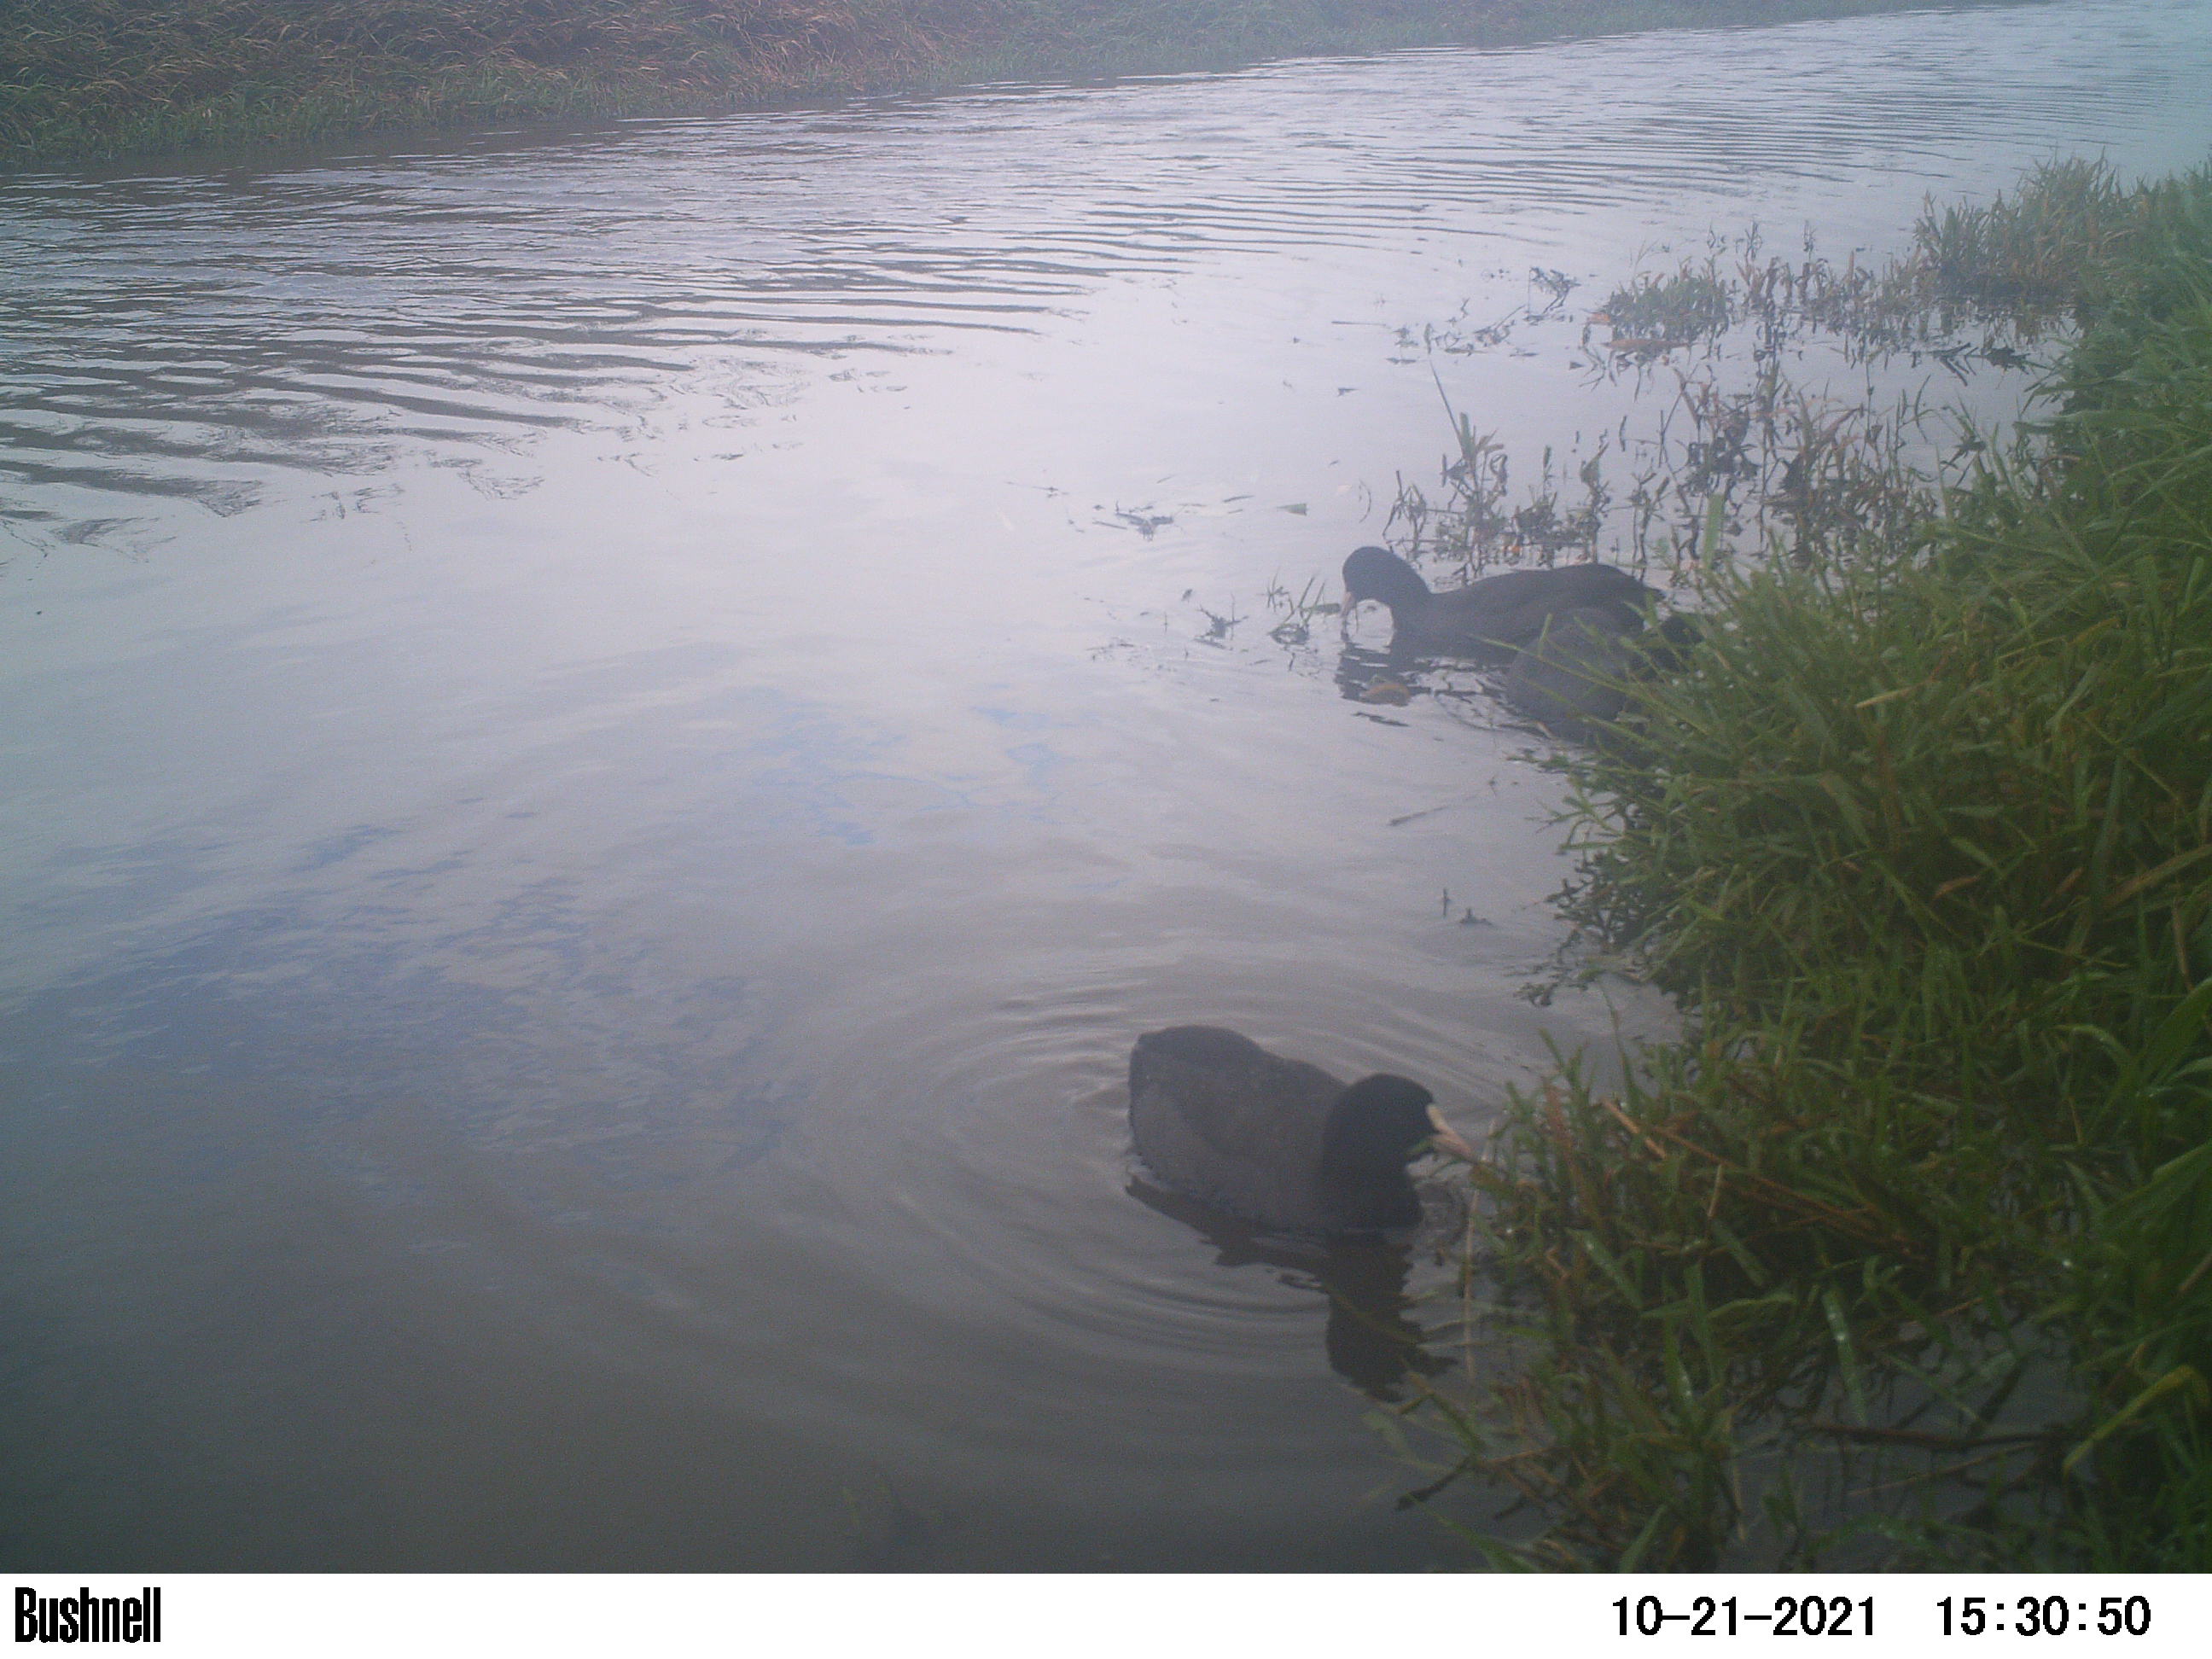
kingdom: Animalia
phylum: Chordata
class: Aves
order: Gruiformes
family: Rallidae
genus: Fulica
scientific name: Fulica atra
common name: Eurasian coot
